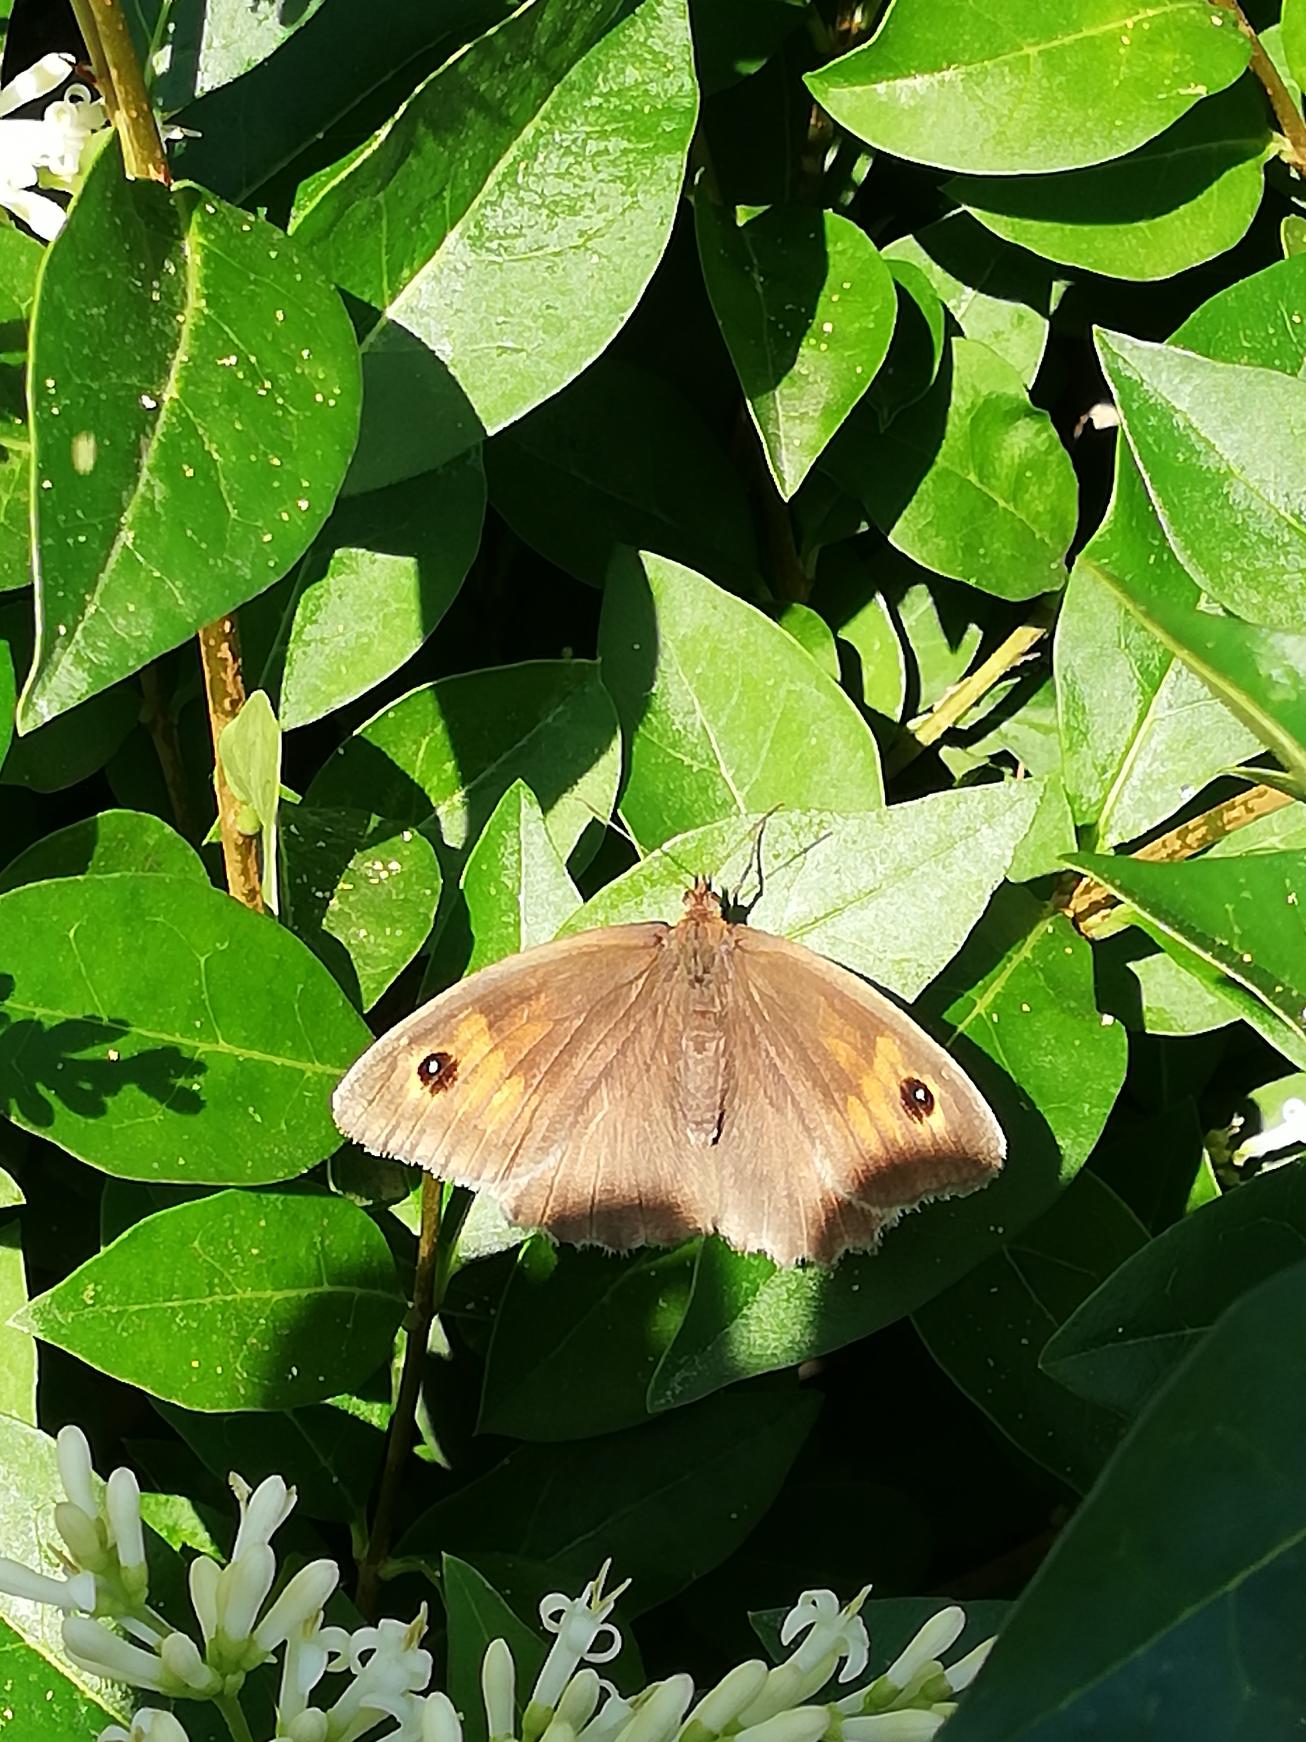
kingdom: Animalia
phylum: Arthropoda
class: Insecta
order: Lepidoptera
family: Nymphalidae
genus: Maniola
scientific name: Maniola jurtina
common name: Græsrandøje
